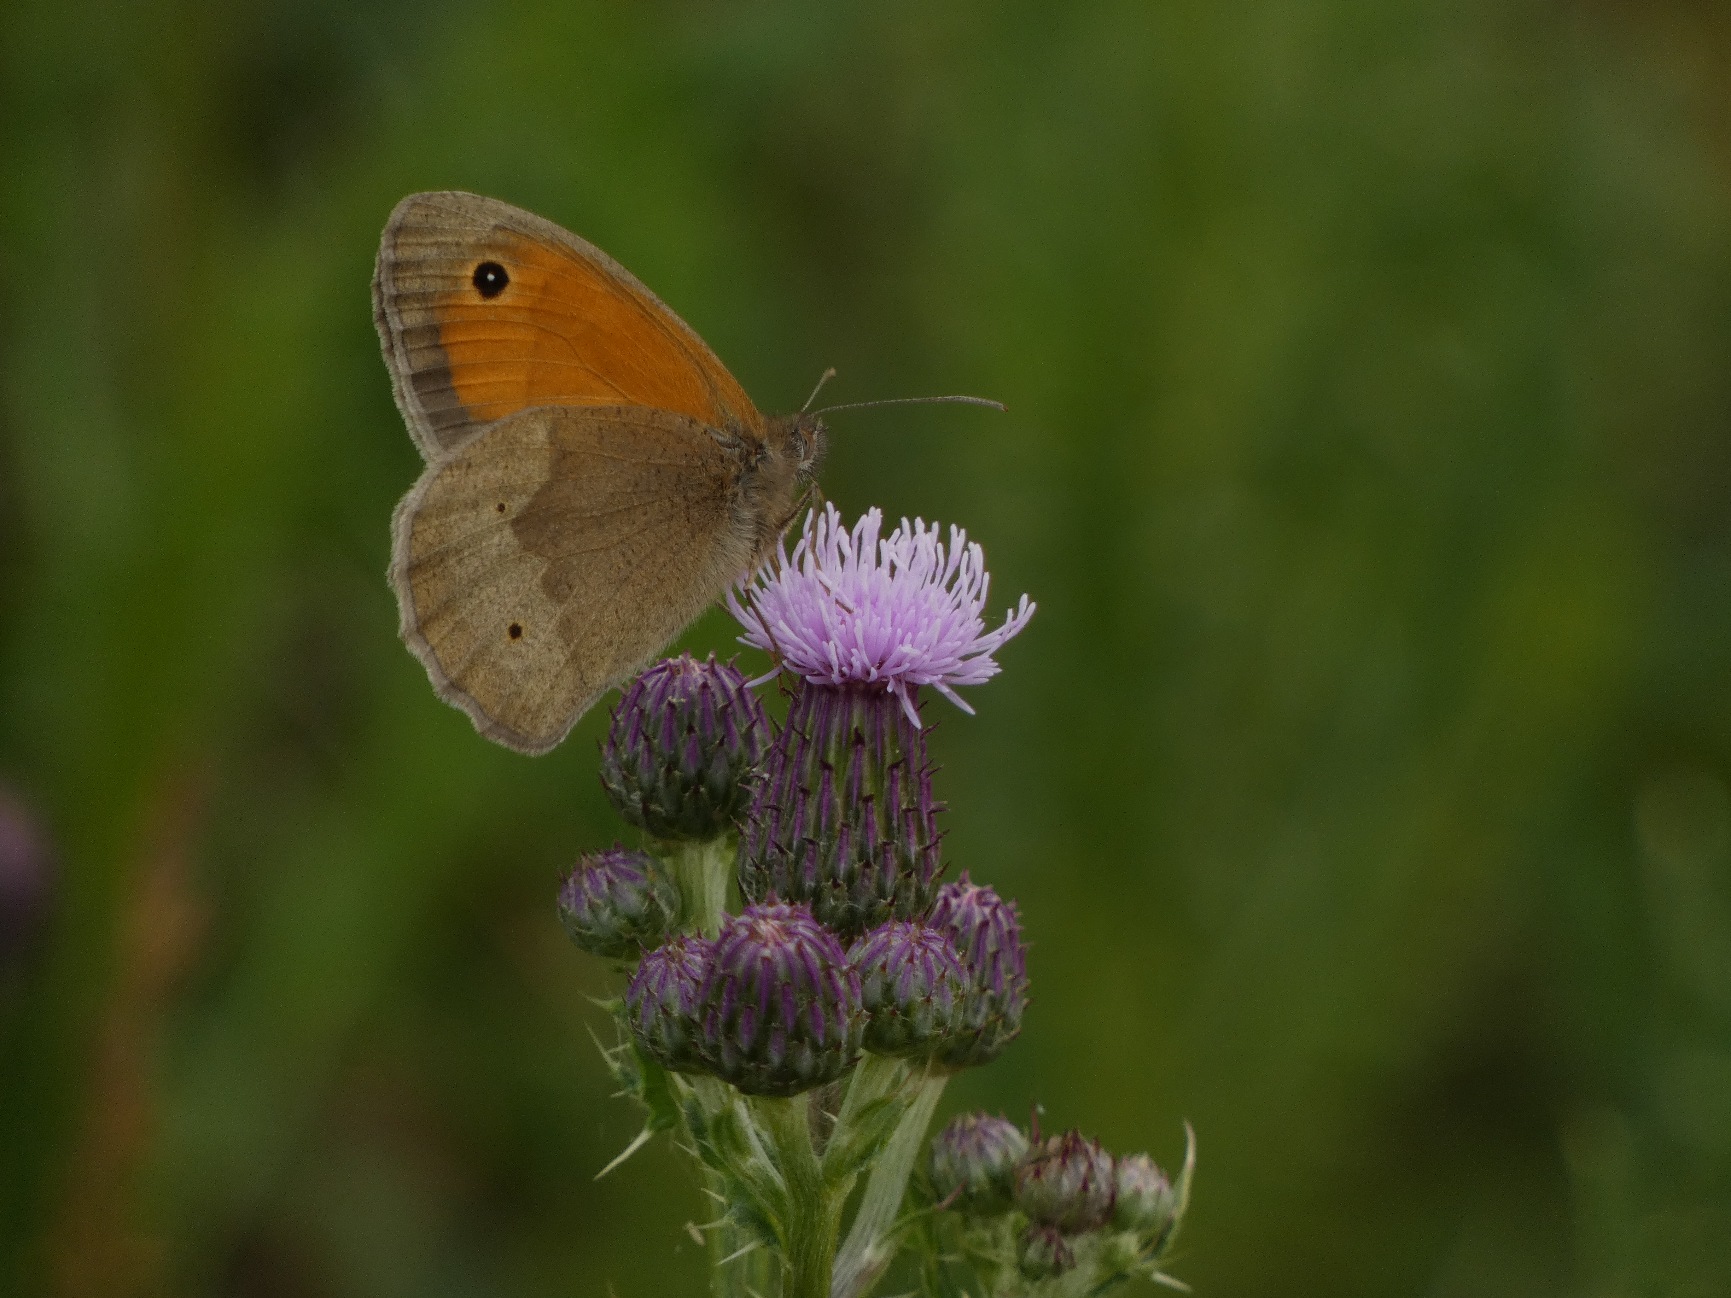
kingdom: Animalia
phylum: Arthropoda
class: Insecta
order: Lepidoptera
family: Nymphalidae
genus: Maniola
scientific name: Maniola jurtina
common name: Græsrandøje
